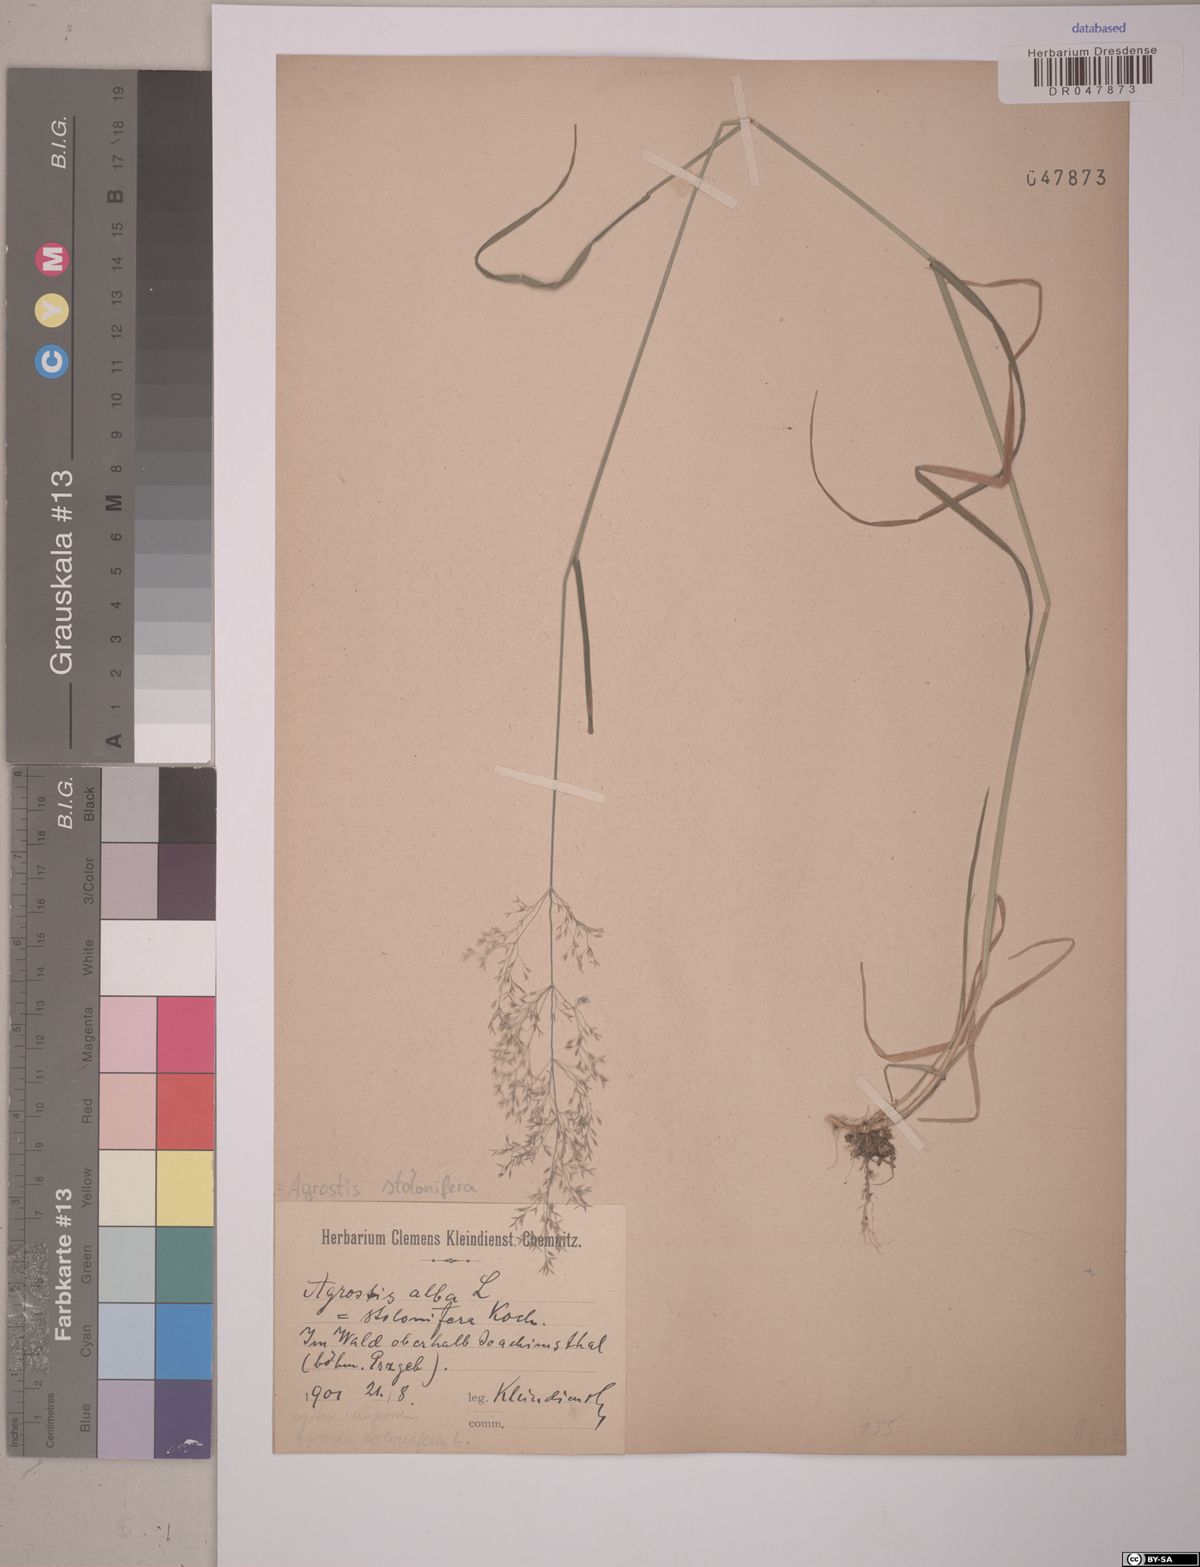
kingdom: Plantae
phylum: Tracheophyta
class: Liliopsida
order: Poales
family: Poaceae
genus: Agrostis
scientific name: Agrostis stolonifera
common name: Creeping bentgrass
